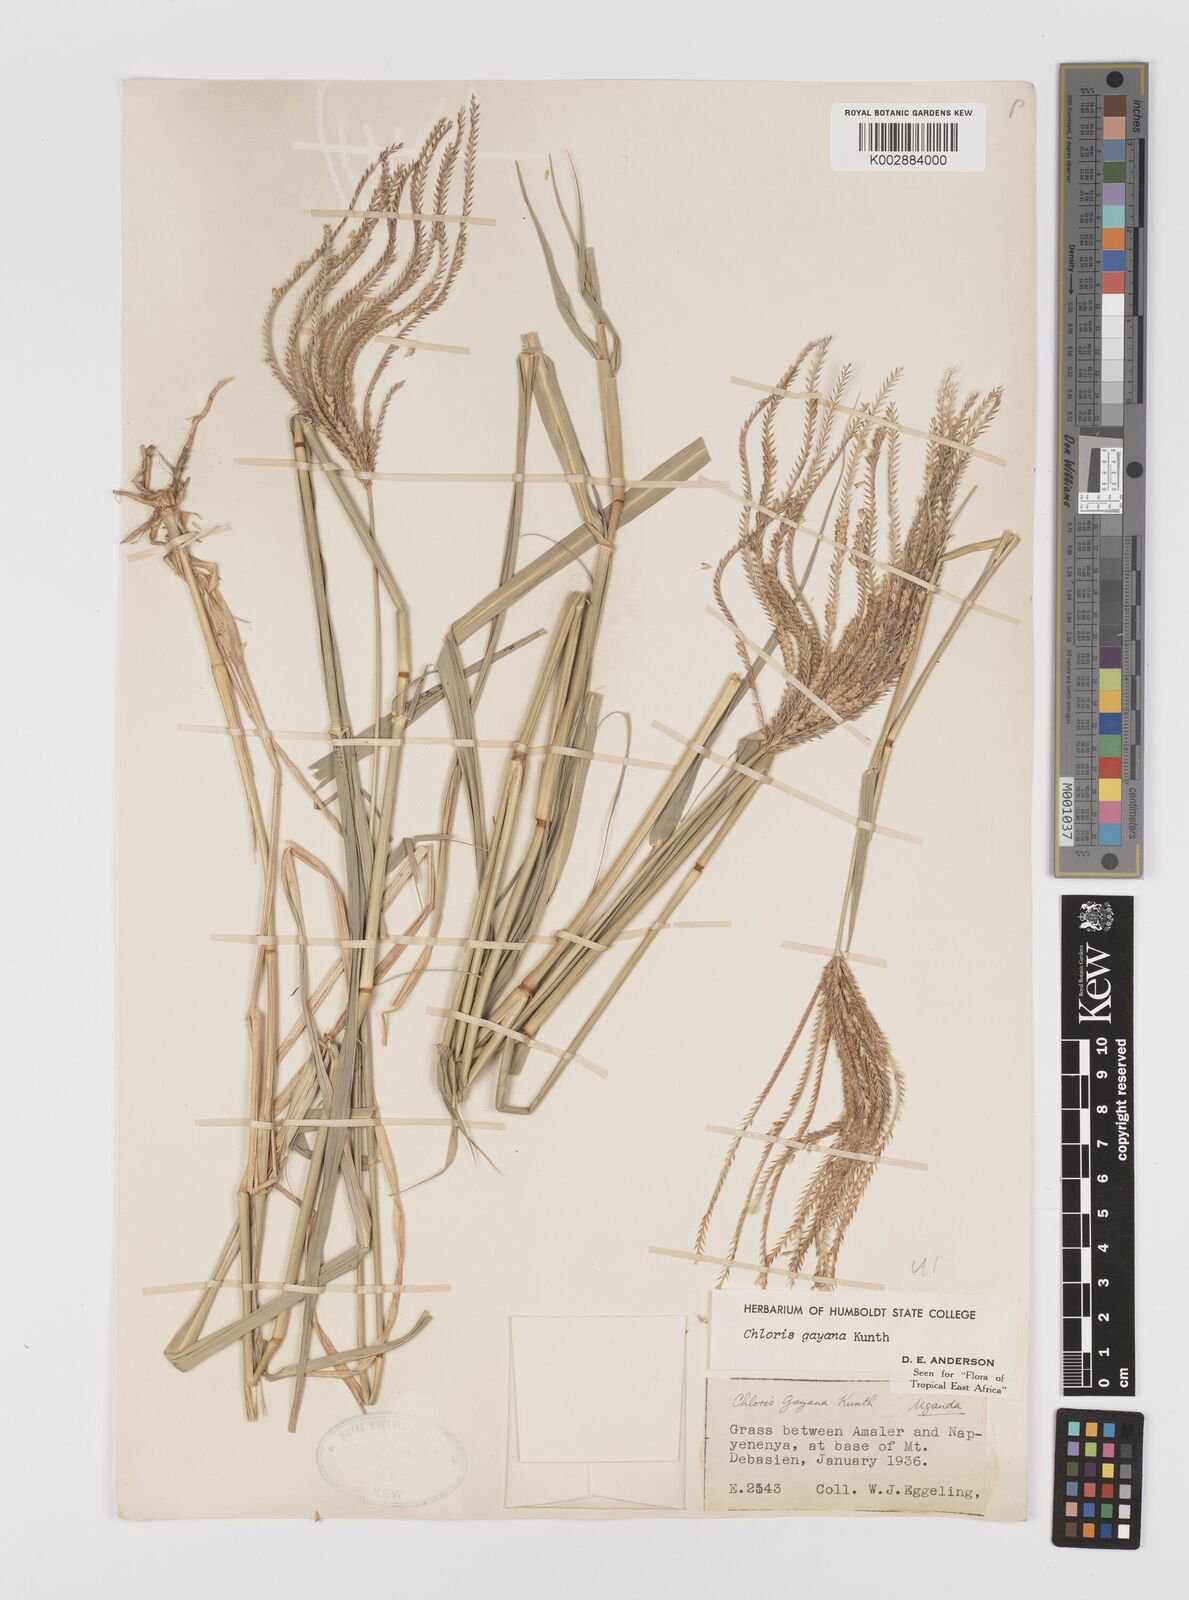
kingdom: Plantae
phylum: Tracheophyta
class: Liliopsida
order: Poales
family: Poaceae
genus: Chloris
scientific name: Chloris gayana
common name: Rhodes grass
